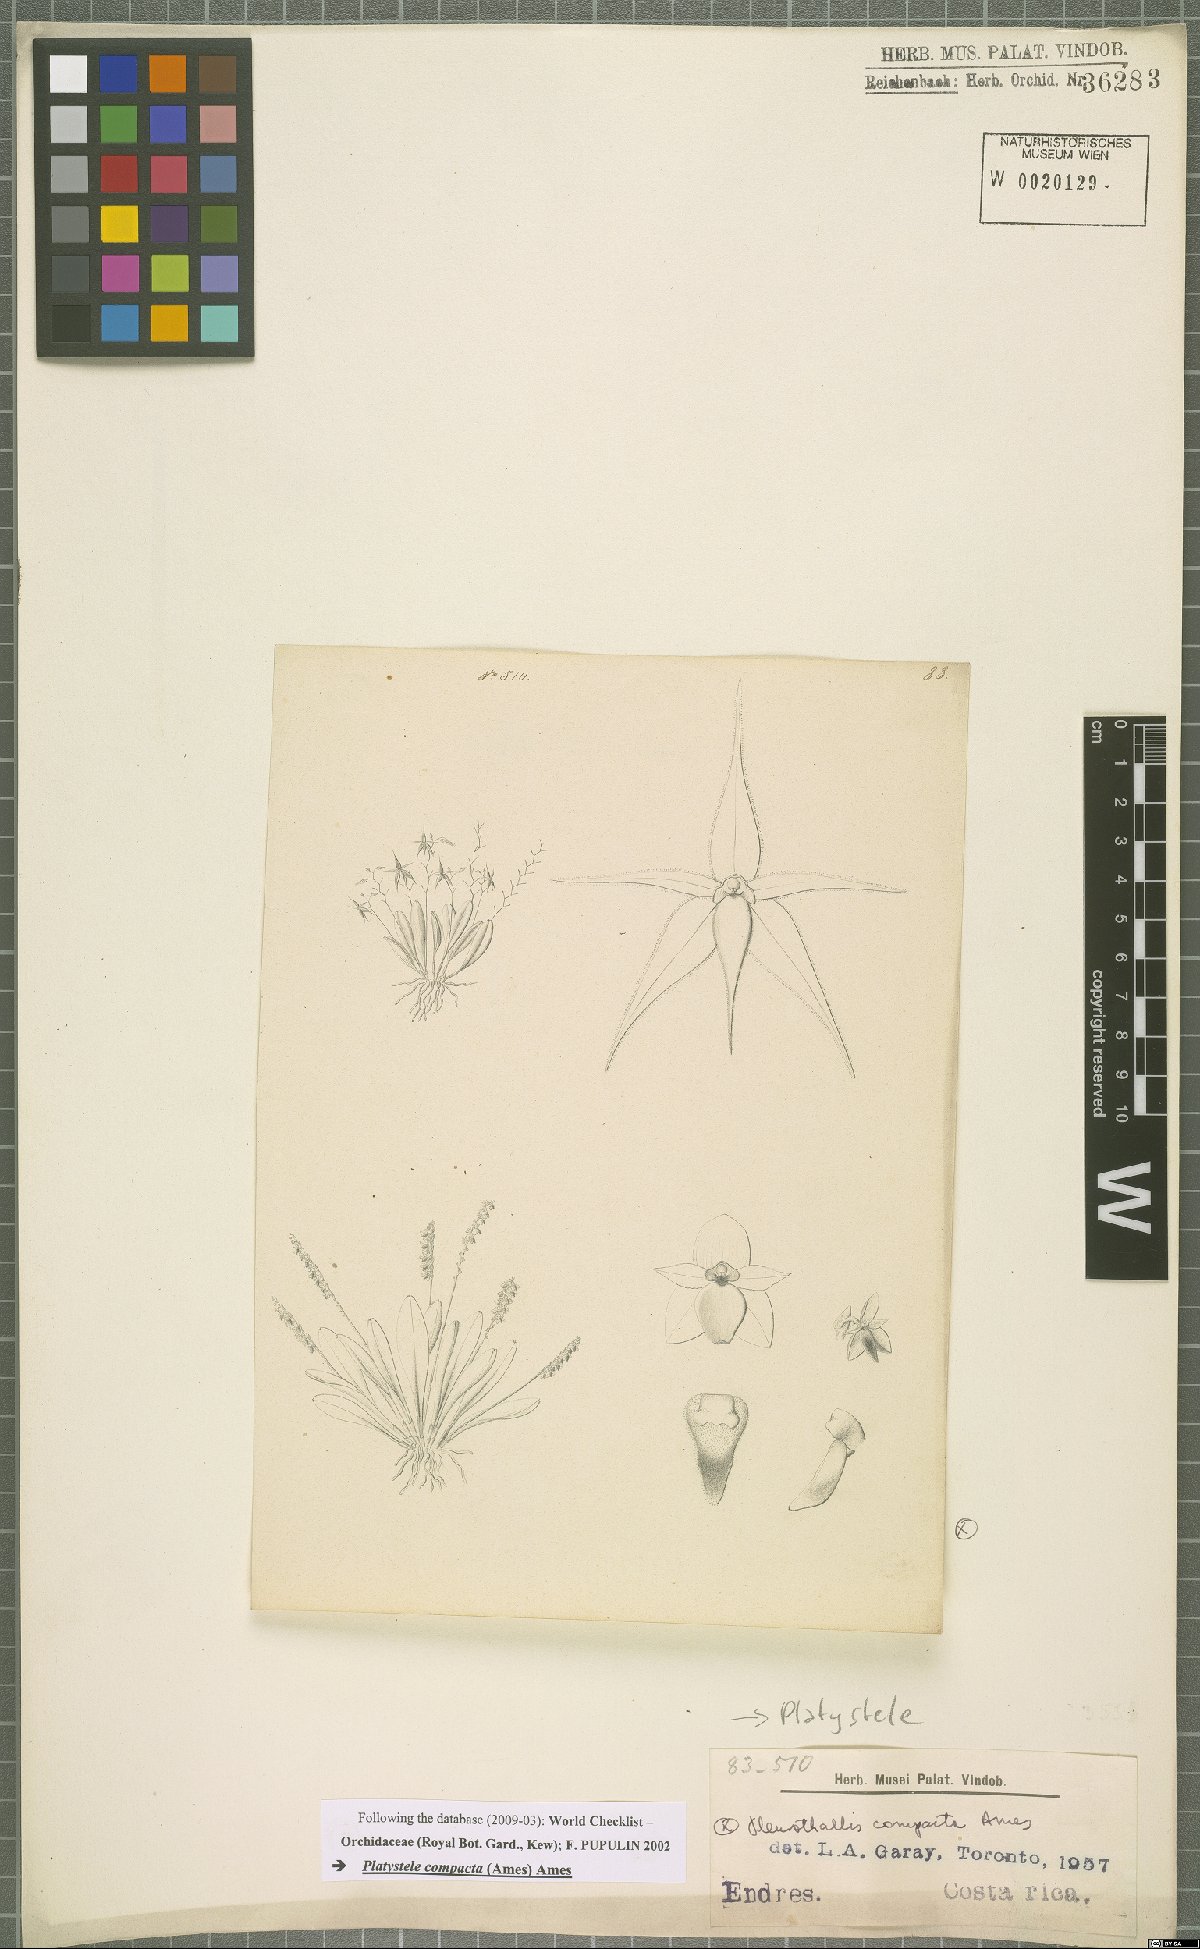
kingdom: Plantae
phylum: Tracheophyta
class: Liliopsida
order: Asparagales
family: Orchidaceae
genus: Platystele
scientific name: Platystele compacta
